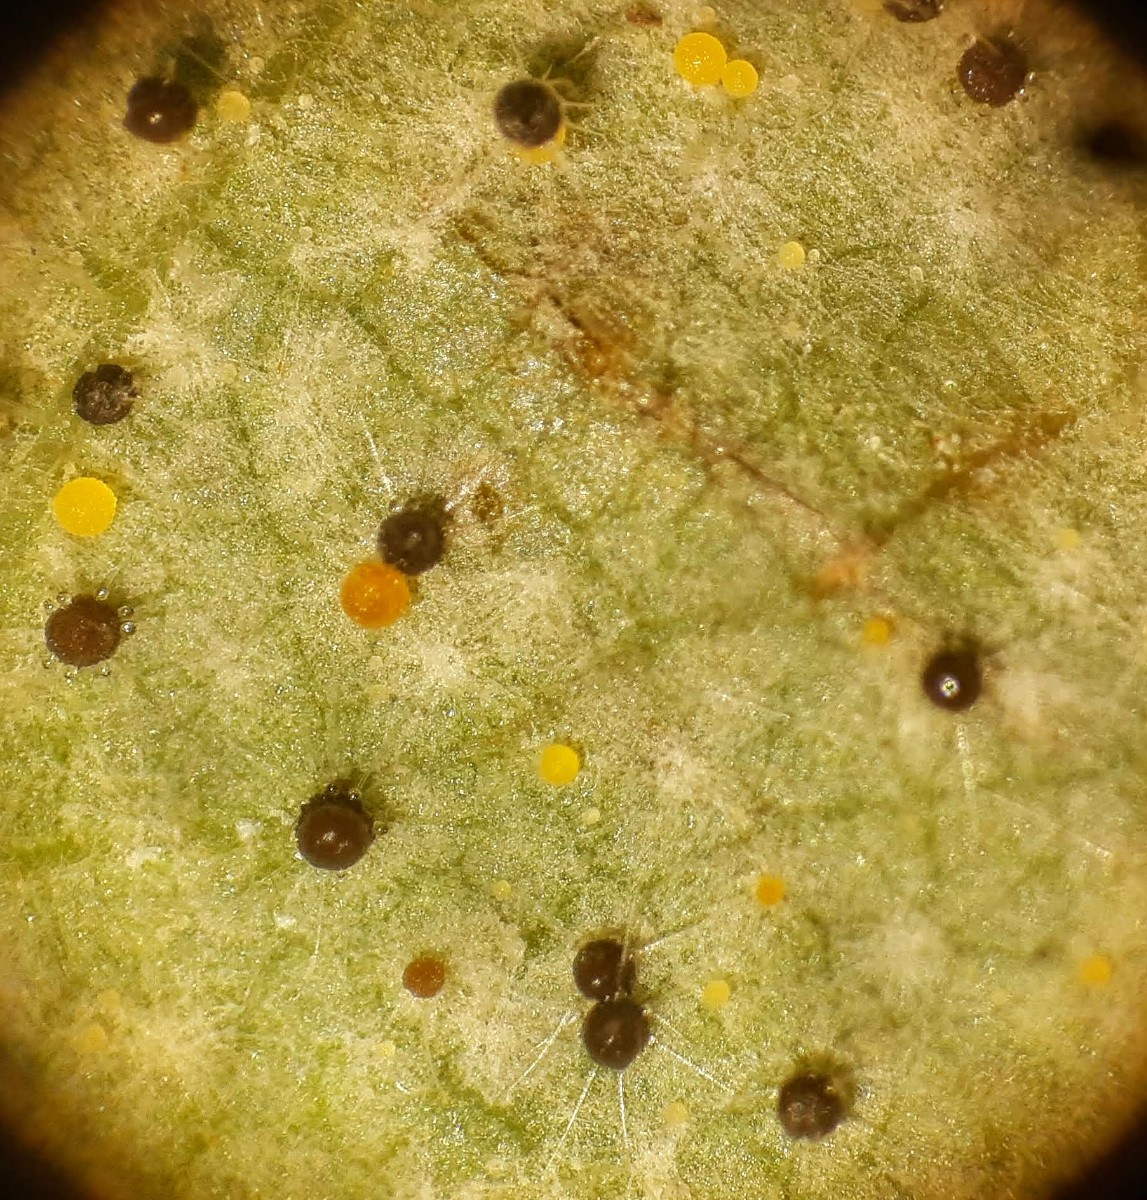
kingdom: Fungi
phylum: Ascomycota
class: Leotiomycetes
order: Helotiales
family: Erysiphaceae
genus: Phyllactinia
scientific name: Phyllactinia guttata
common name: hassel-meldug
